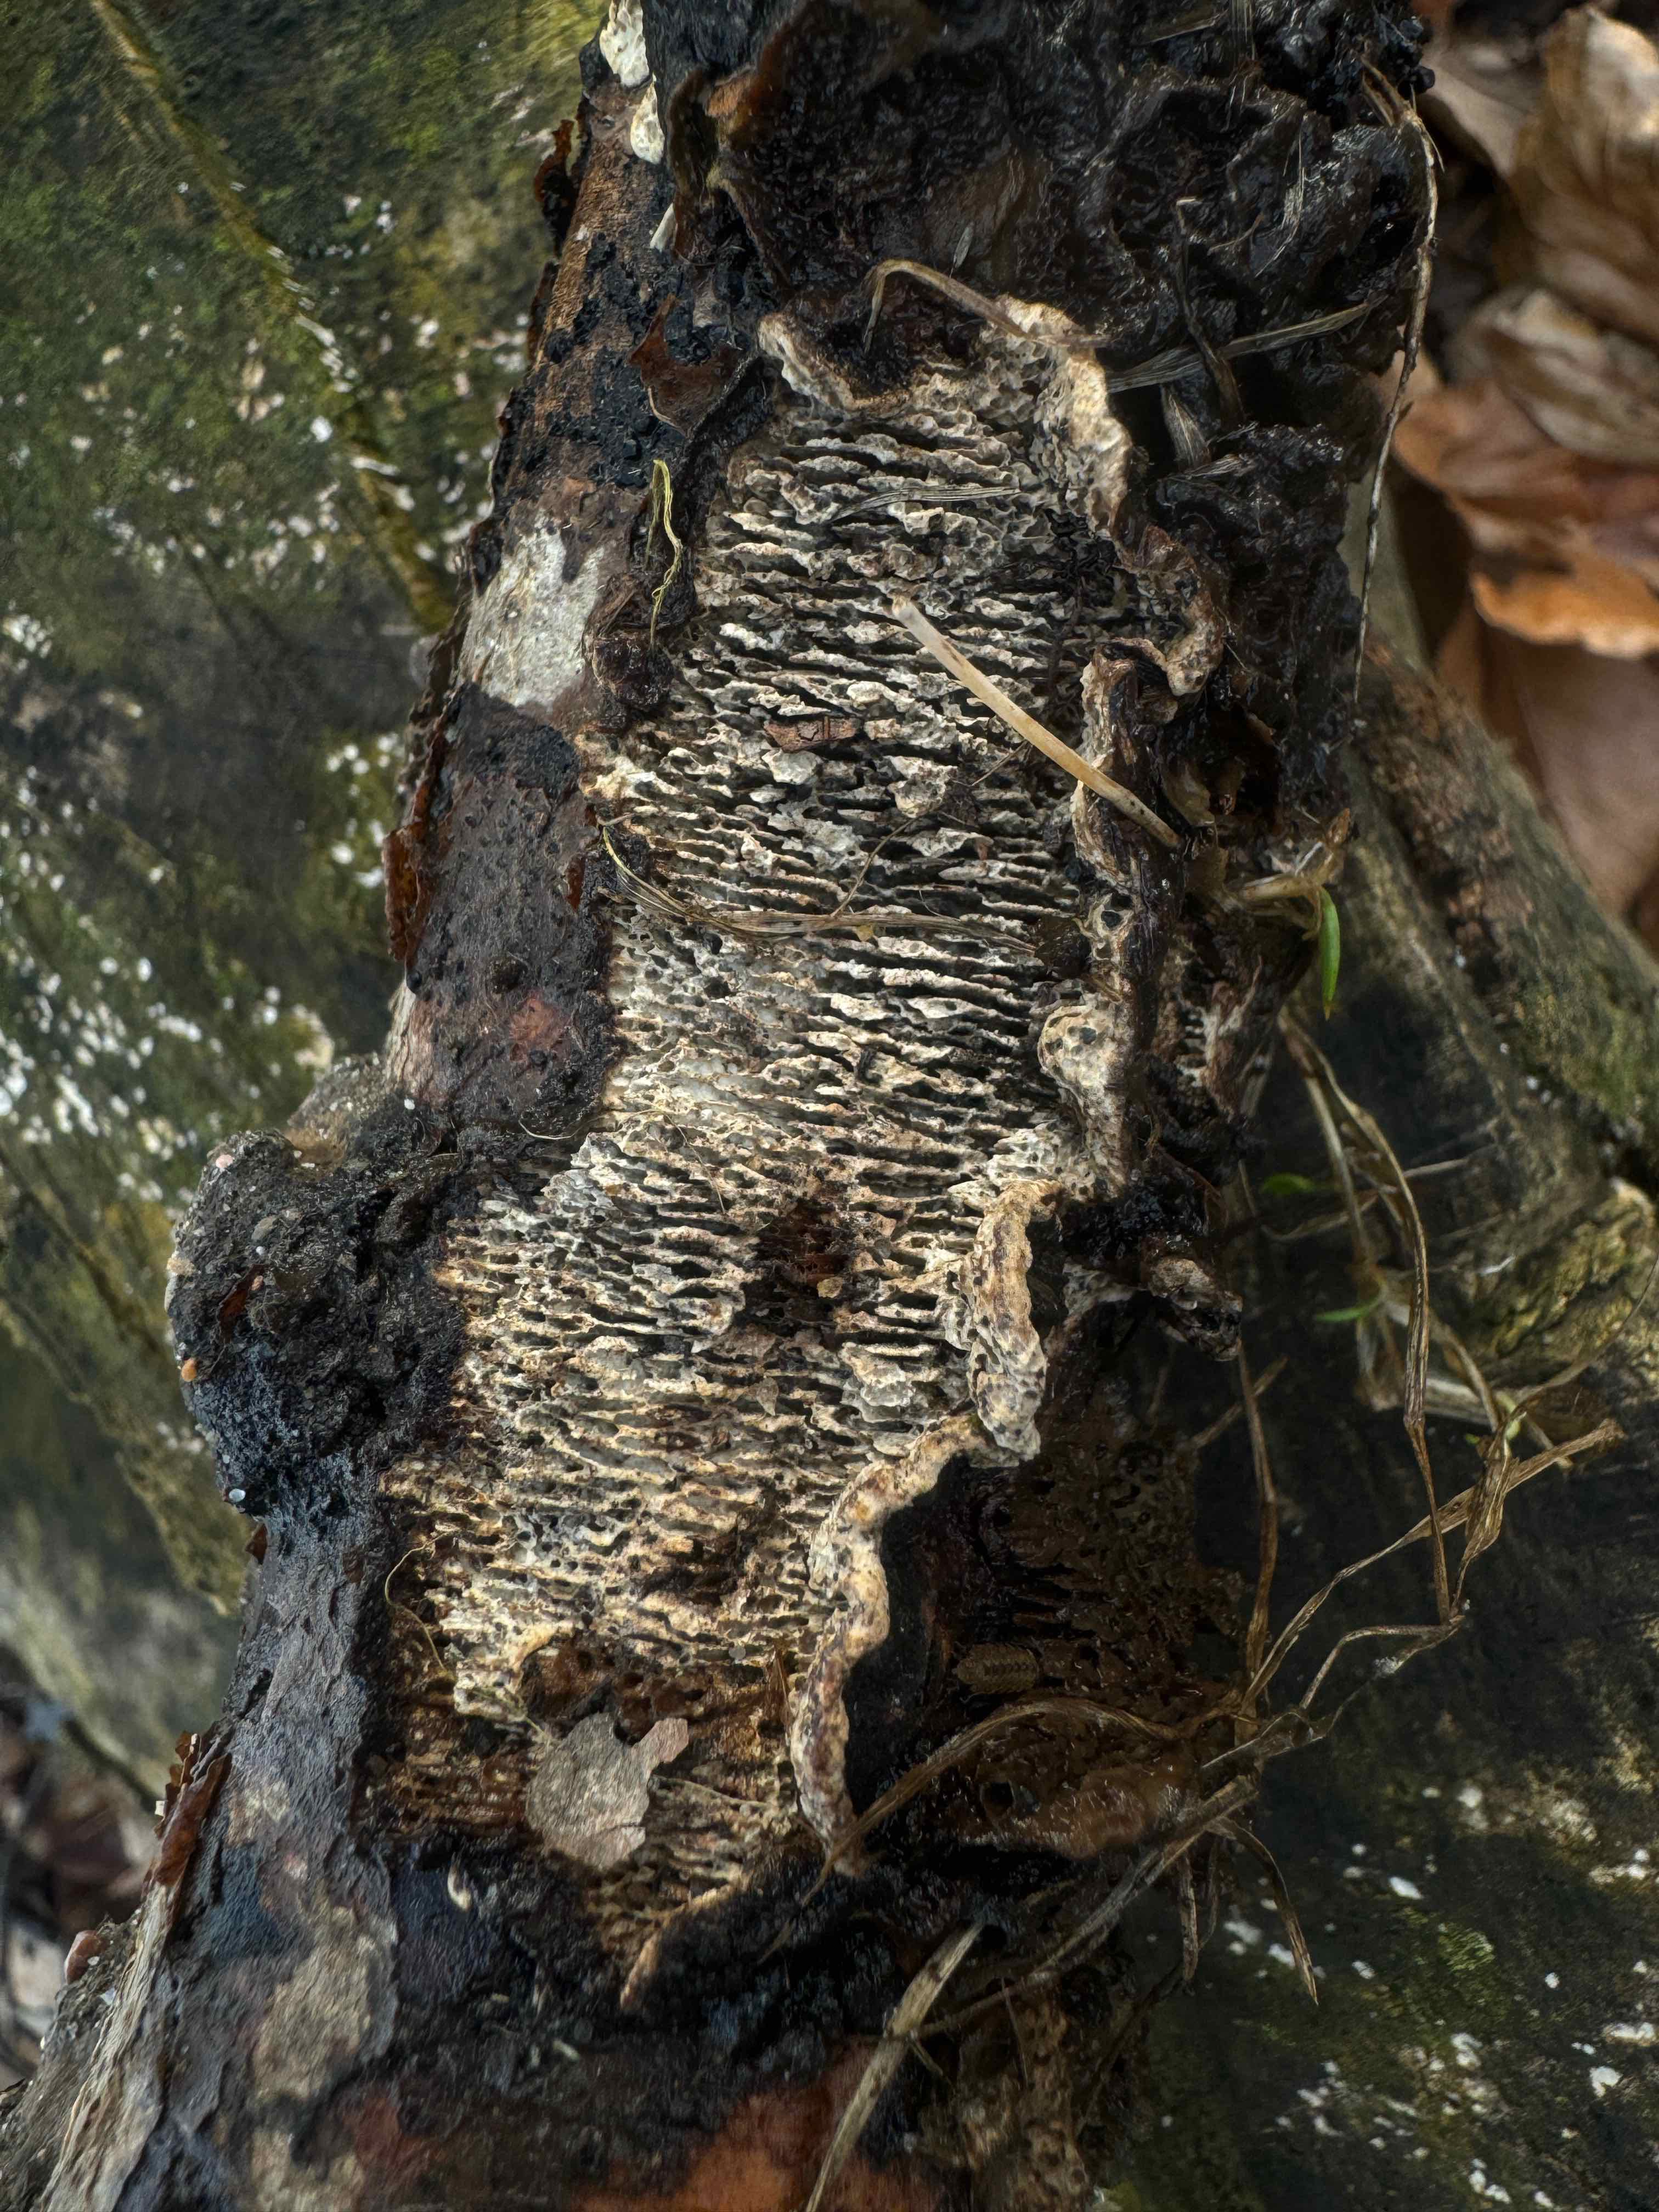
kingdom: Fungi
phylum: Basidiomycota
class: Agaricomycetes
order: Polyporales
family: Polyporaceae
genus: Podofomes
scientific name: Podofomes mollis
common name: blød begporesvamp
